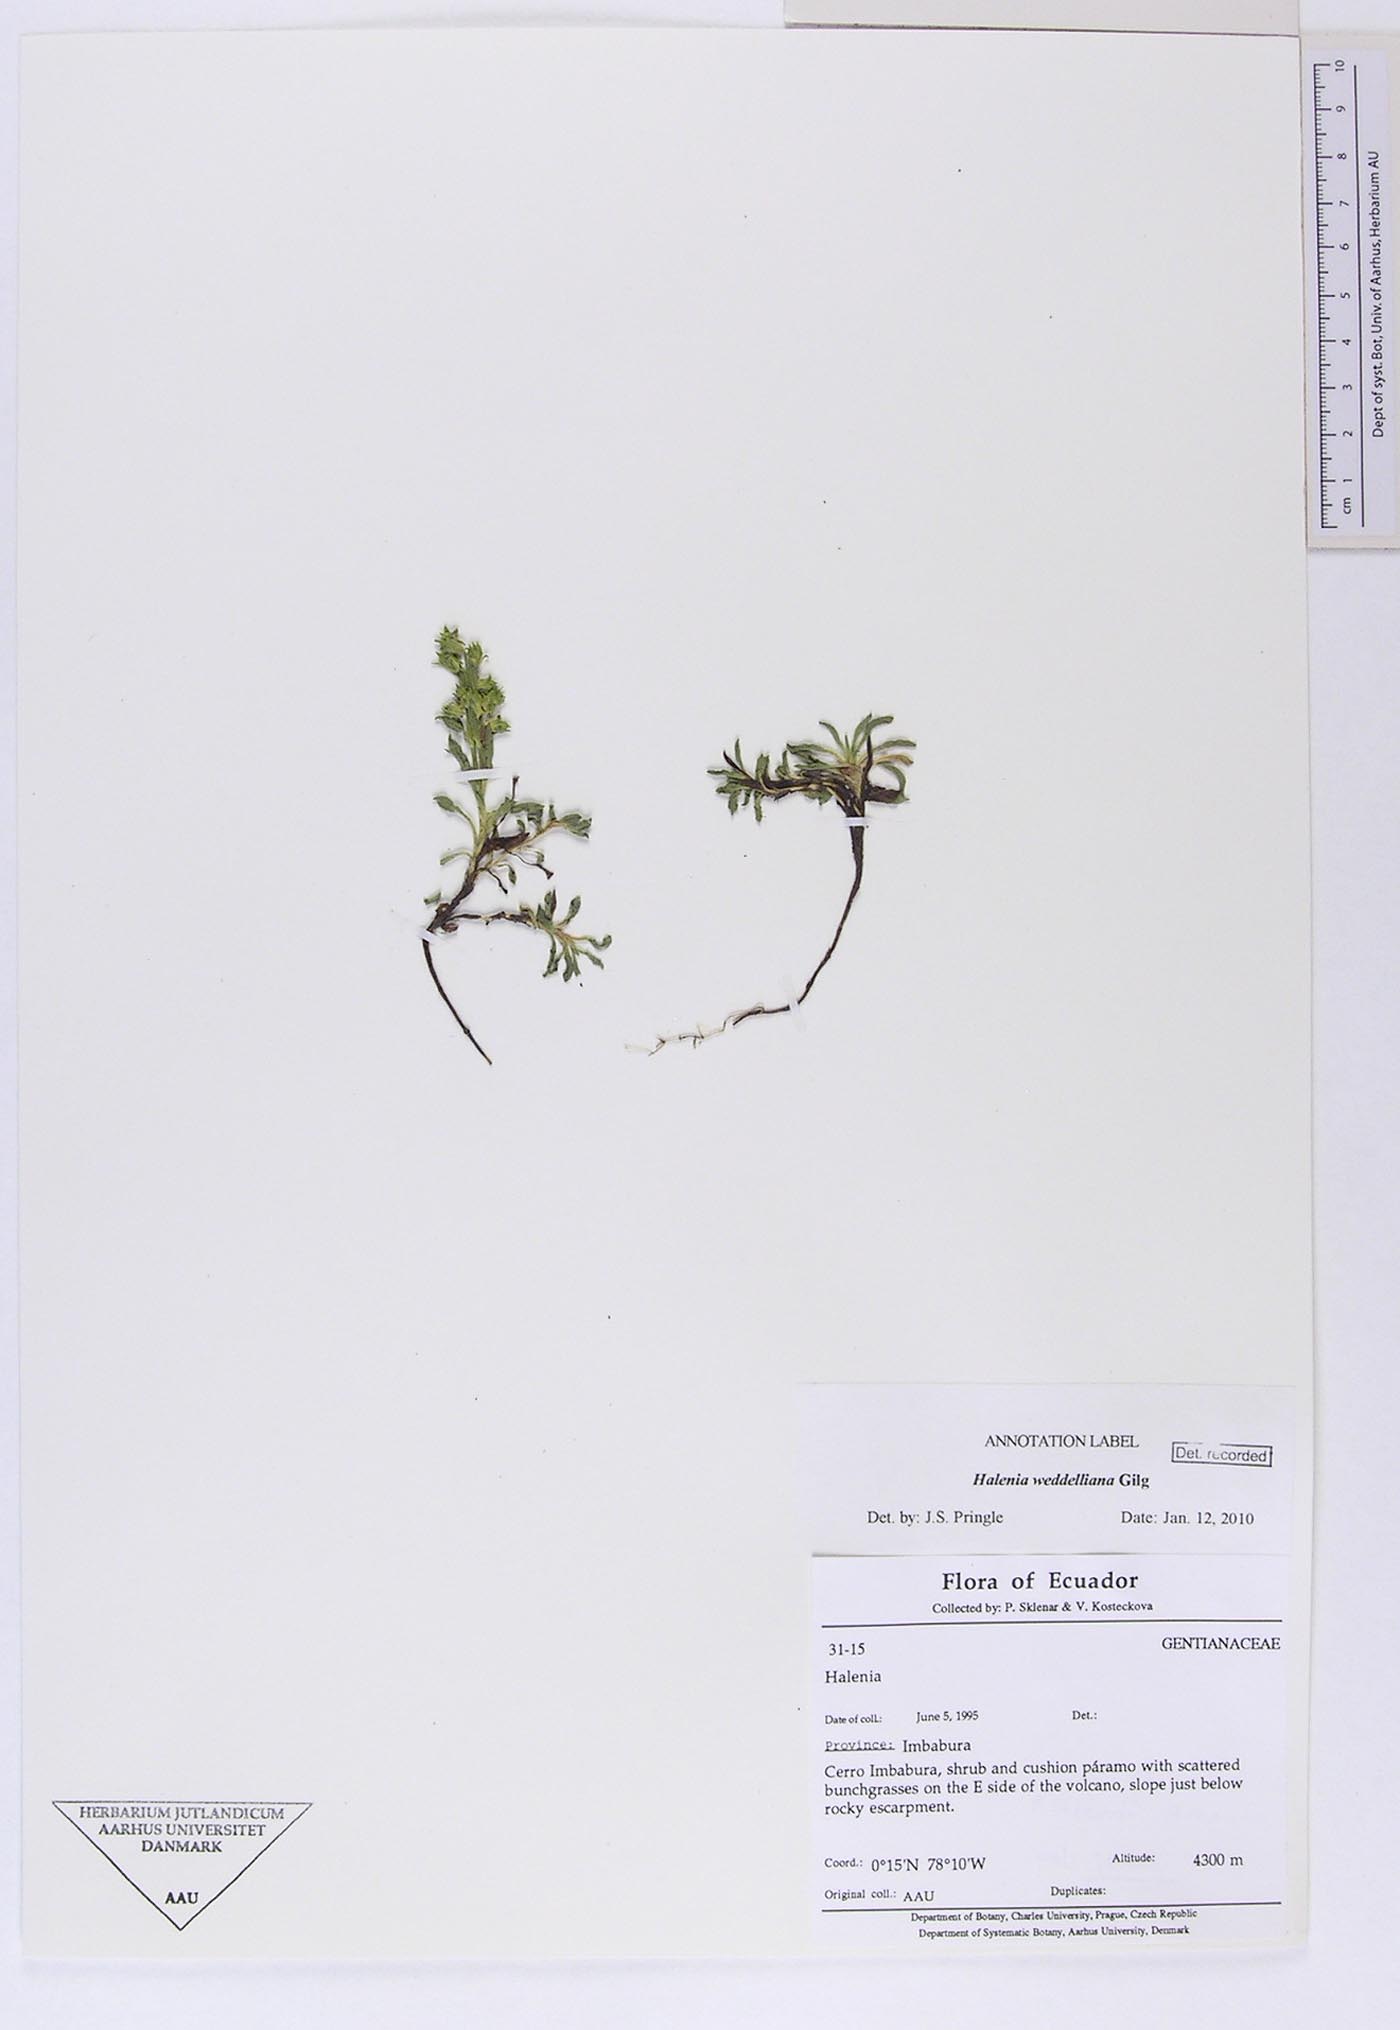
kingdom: Plantae
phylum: Tracheophyta
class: Magnoliopsida
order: Gentianales
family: Gentianaceae
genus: Halenia
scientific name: Halenia weddelliana
